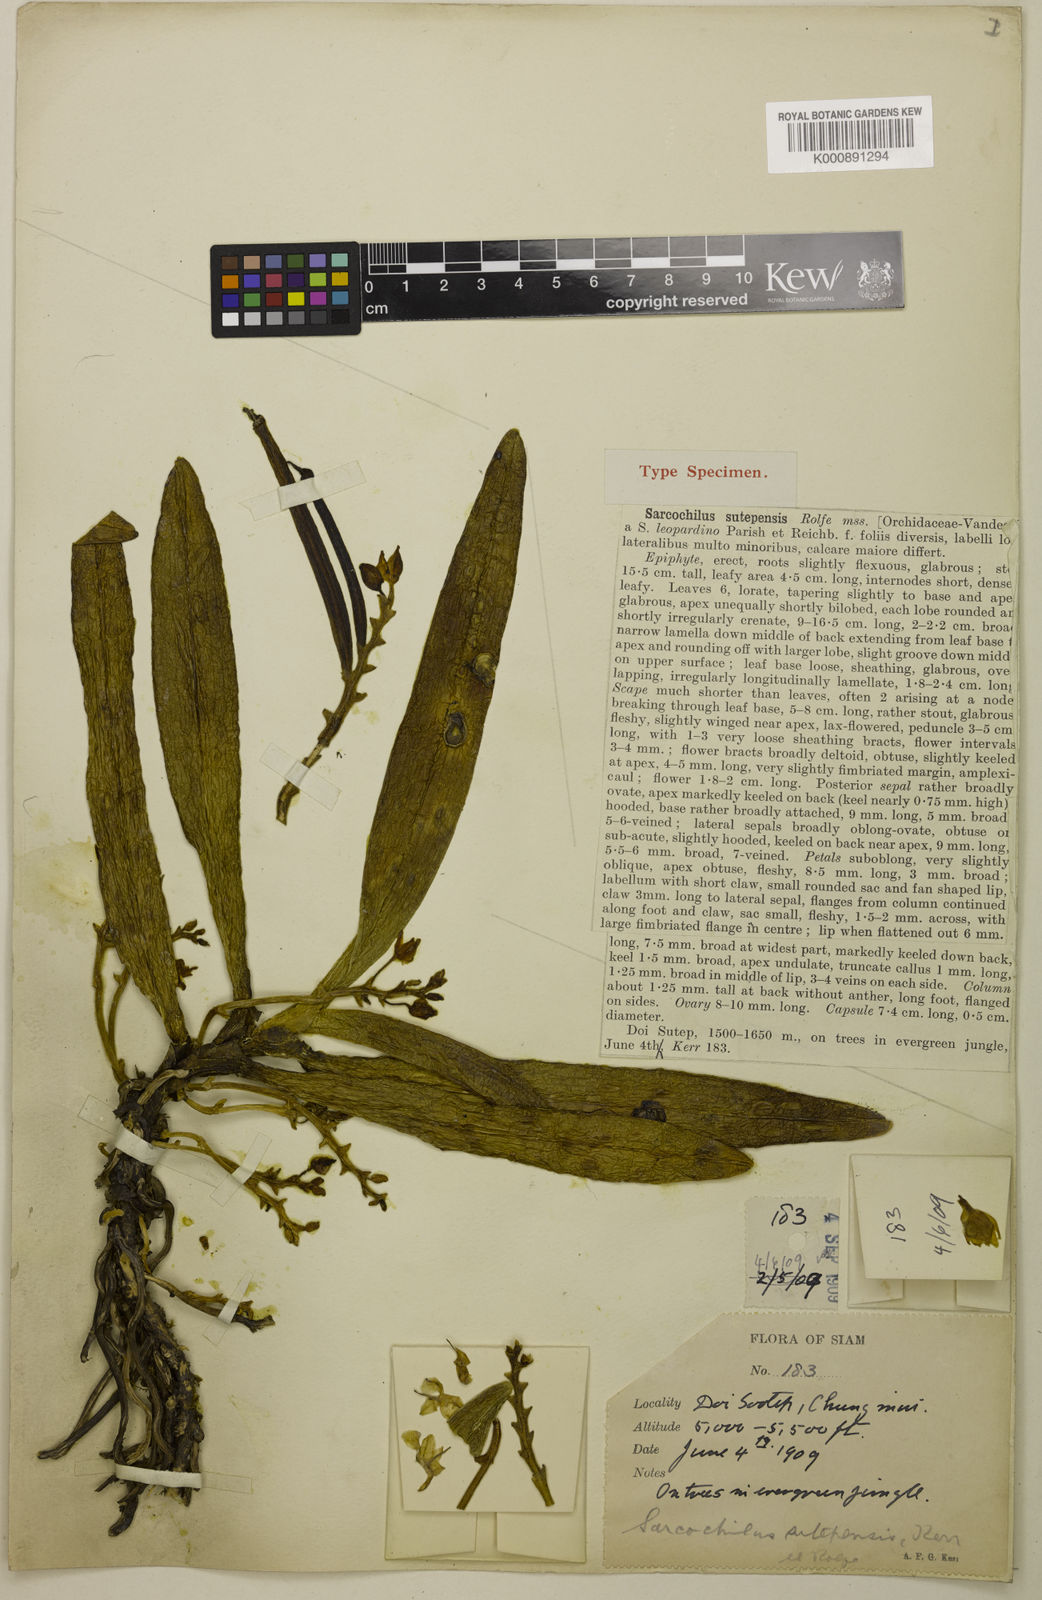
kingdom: Plantae
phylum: Tracheophyta
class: Liliopsida
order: Asparagales
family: Orchidaceae
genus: Thrixspermum
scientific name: Thrixspermum sutepense
